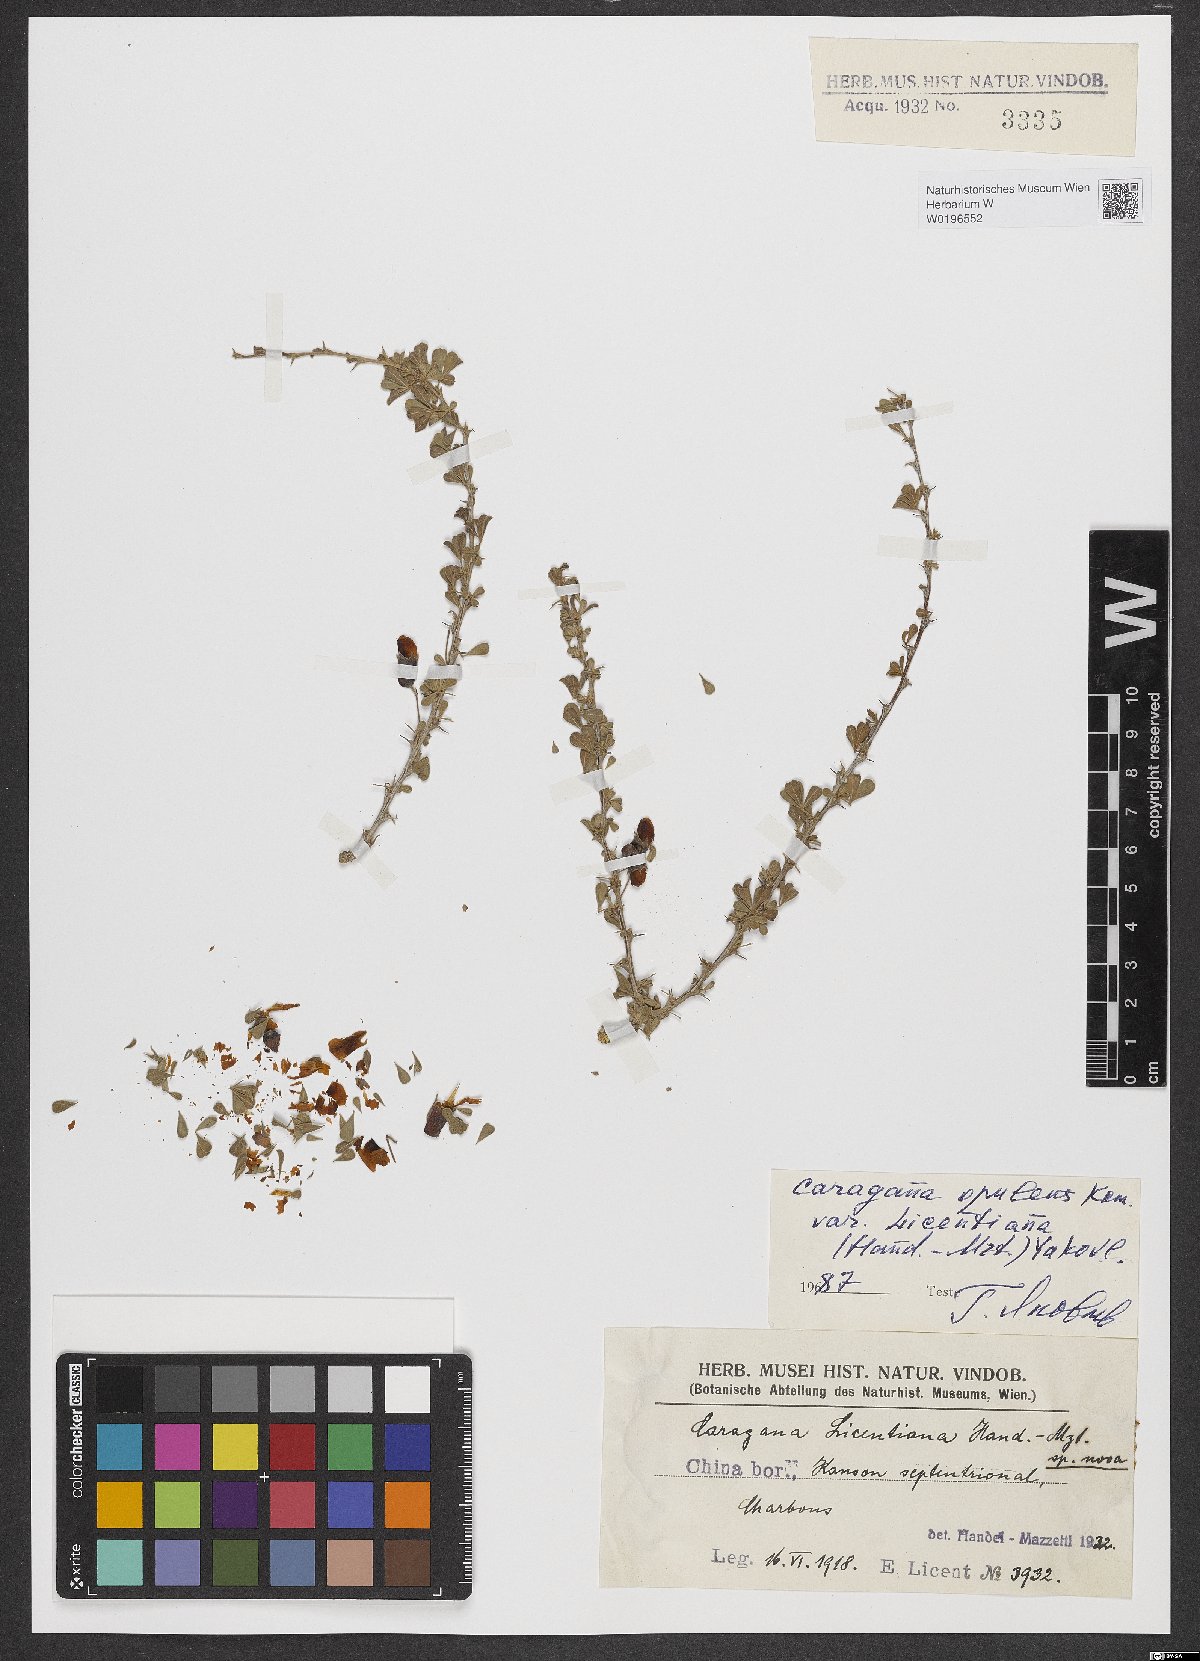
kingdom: Plantae
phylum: Tracheophyta
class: Magnoliopsida
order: Fabales
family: Fabaceae
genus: Caragana
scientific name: Caragana opulens
